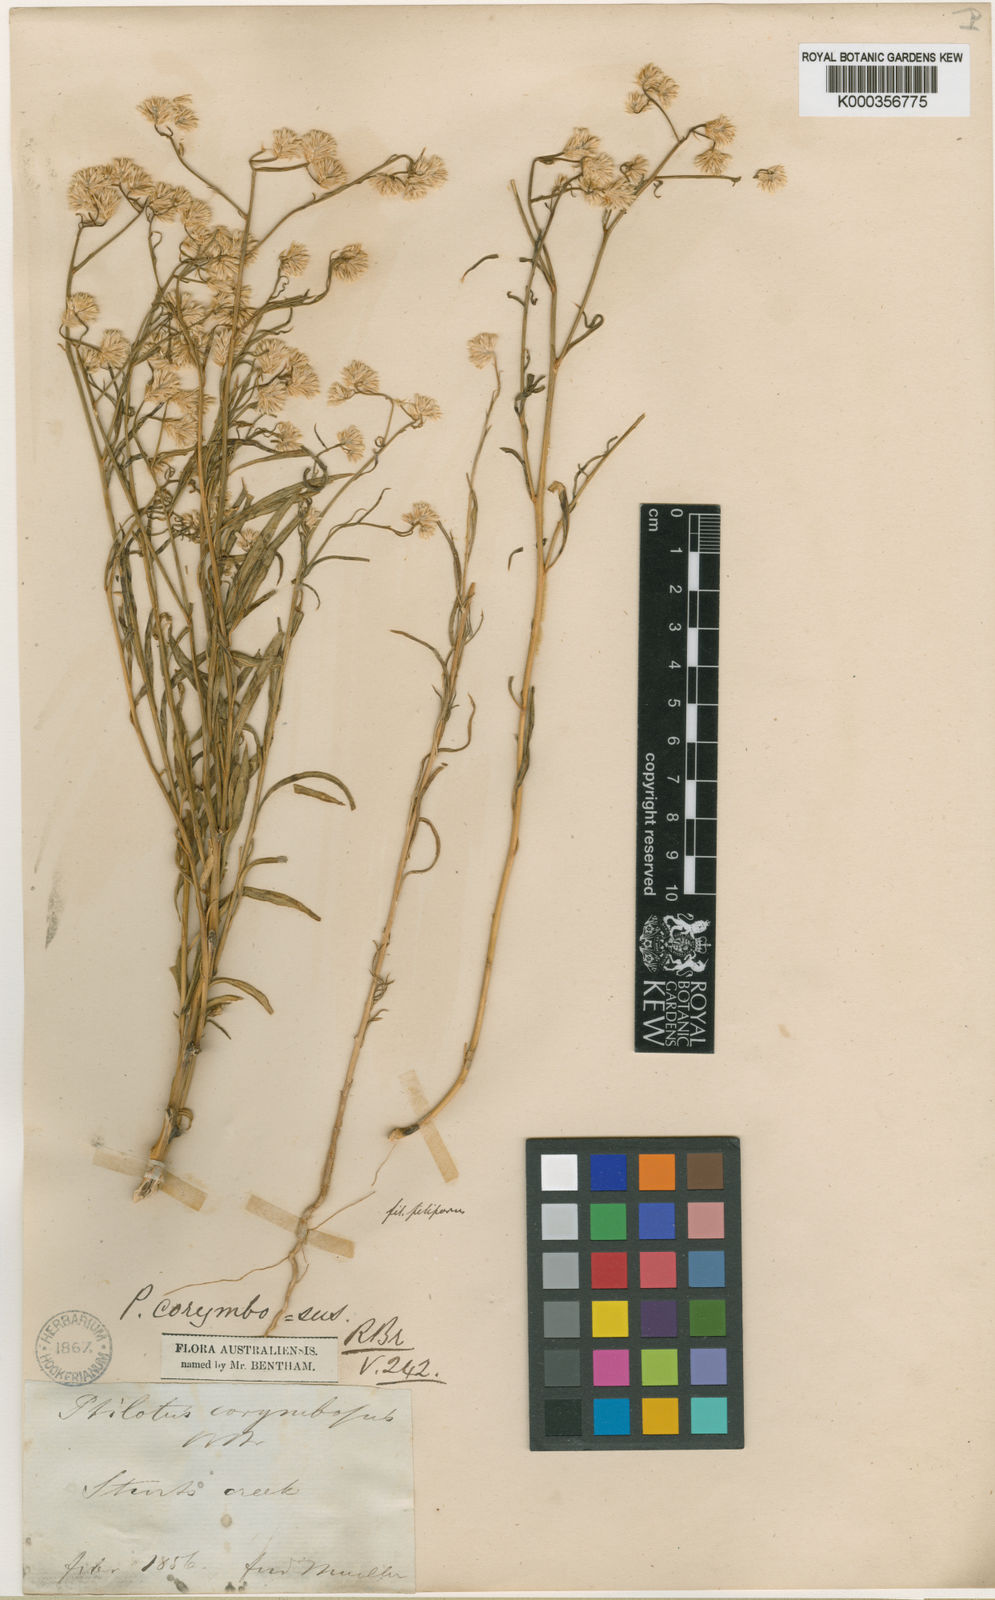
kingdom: Plantae
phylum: Tracheophyta
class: Magnoliopsida
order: Caryophyllales
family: Amaranthaceae
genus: Ptilotus
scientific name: Ptilotus corymbosus
